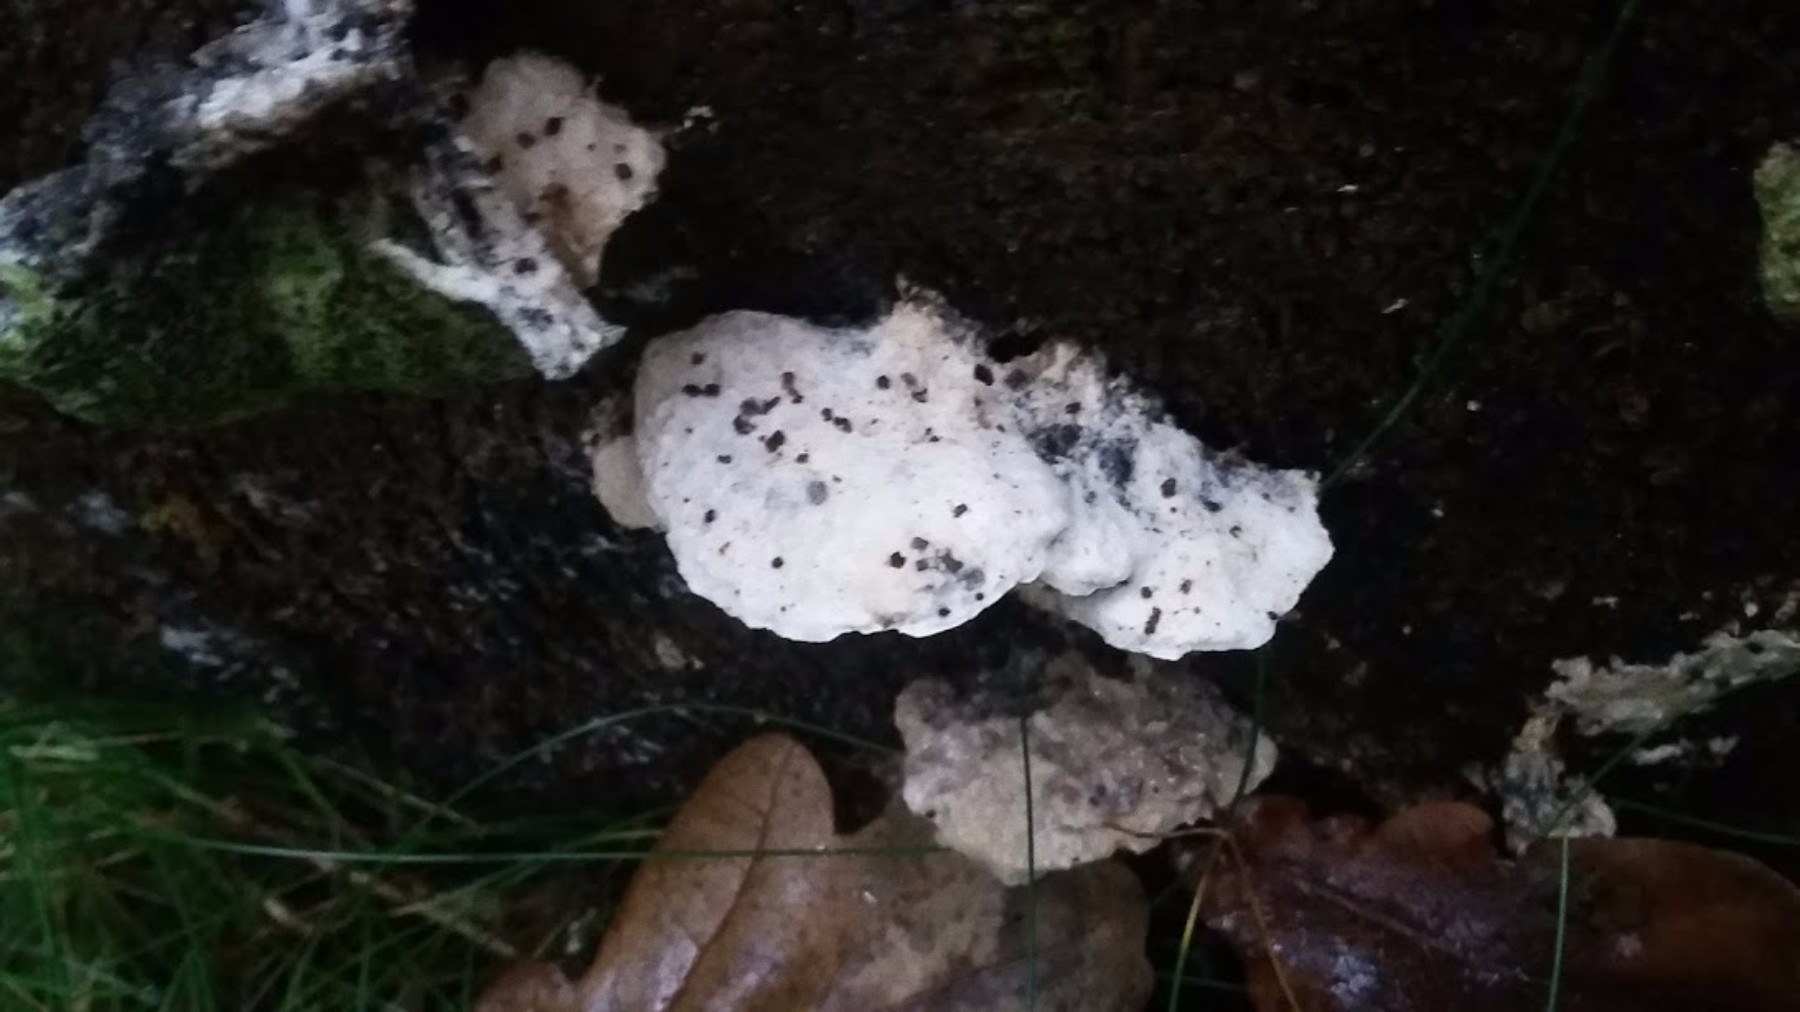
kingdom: Fungi
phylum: Basidiomycota
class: Agaricomycetes
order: Polyporales
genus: Amaropostia
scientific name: Amaropostia stiptica
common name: bitter kødporesvamp
